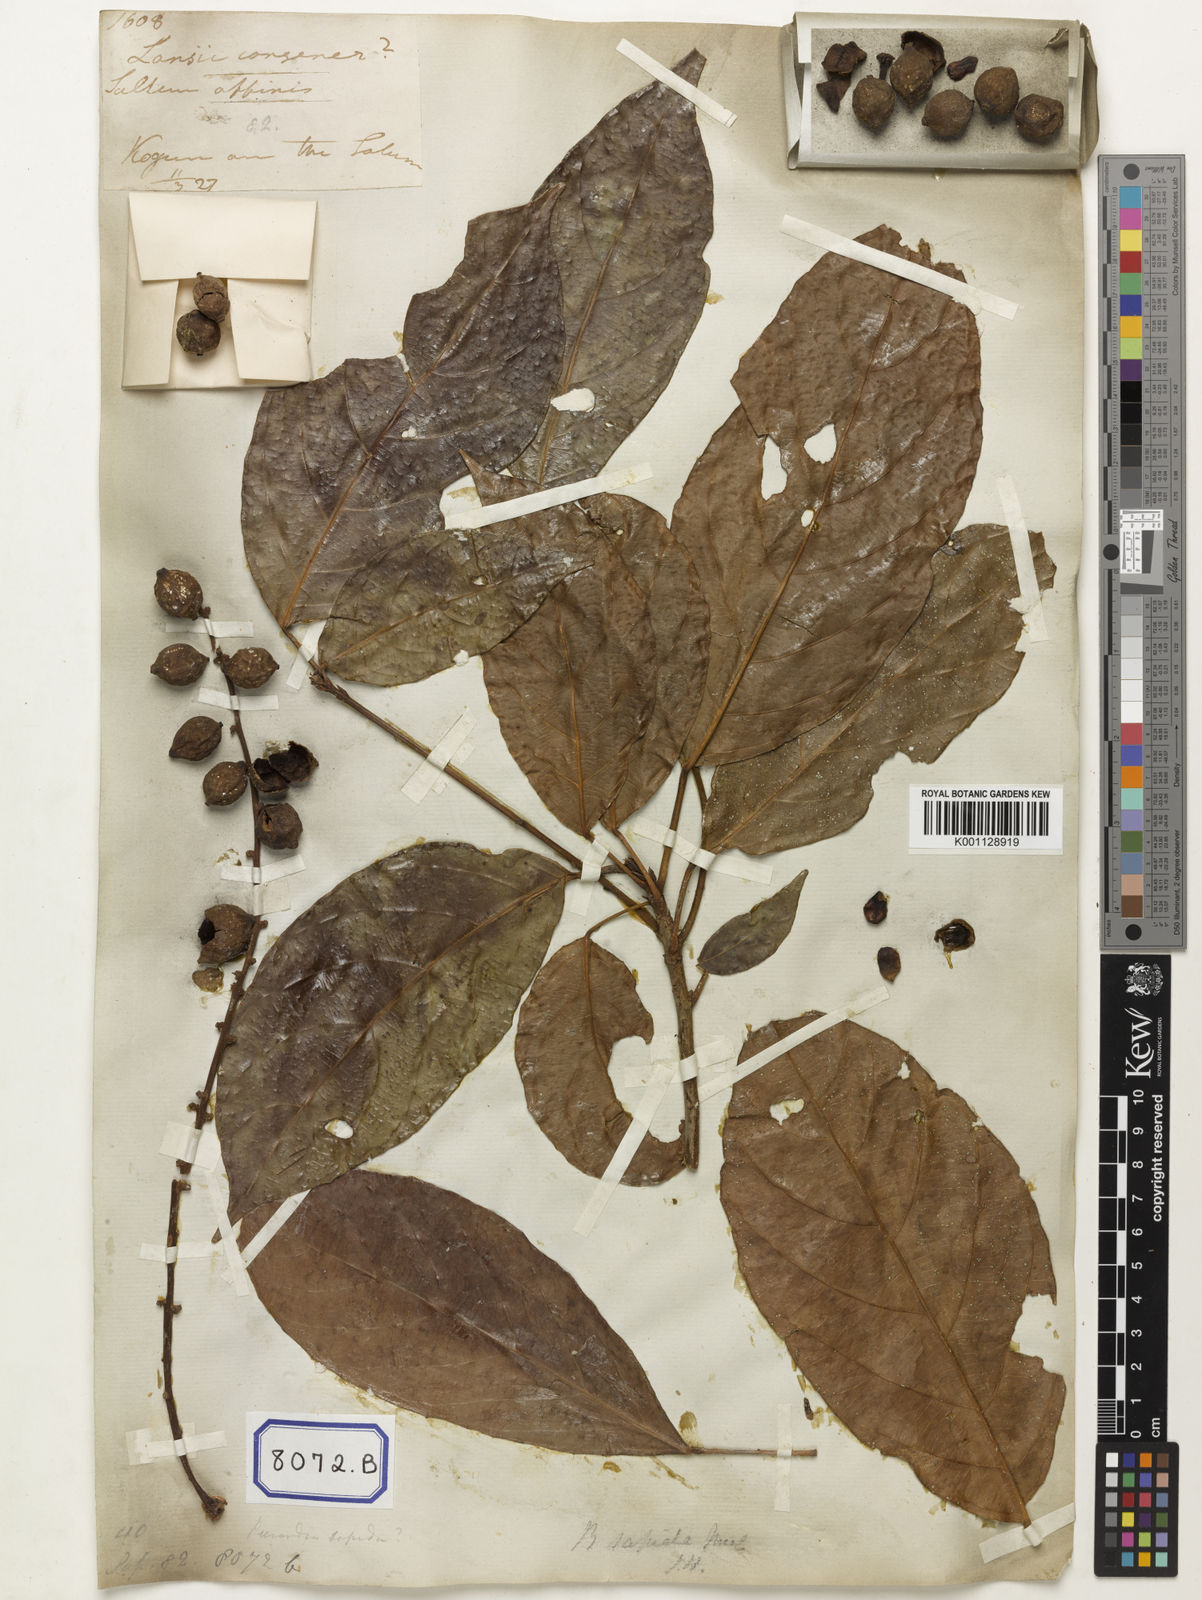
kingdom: Plantae
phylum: Tracheophyta
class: Magnoliopsida
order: Malpighiales
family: Phyllanthaceae
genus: Baccaurea
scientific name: Baccaurea ramiflora
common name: Baccaurea
